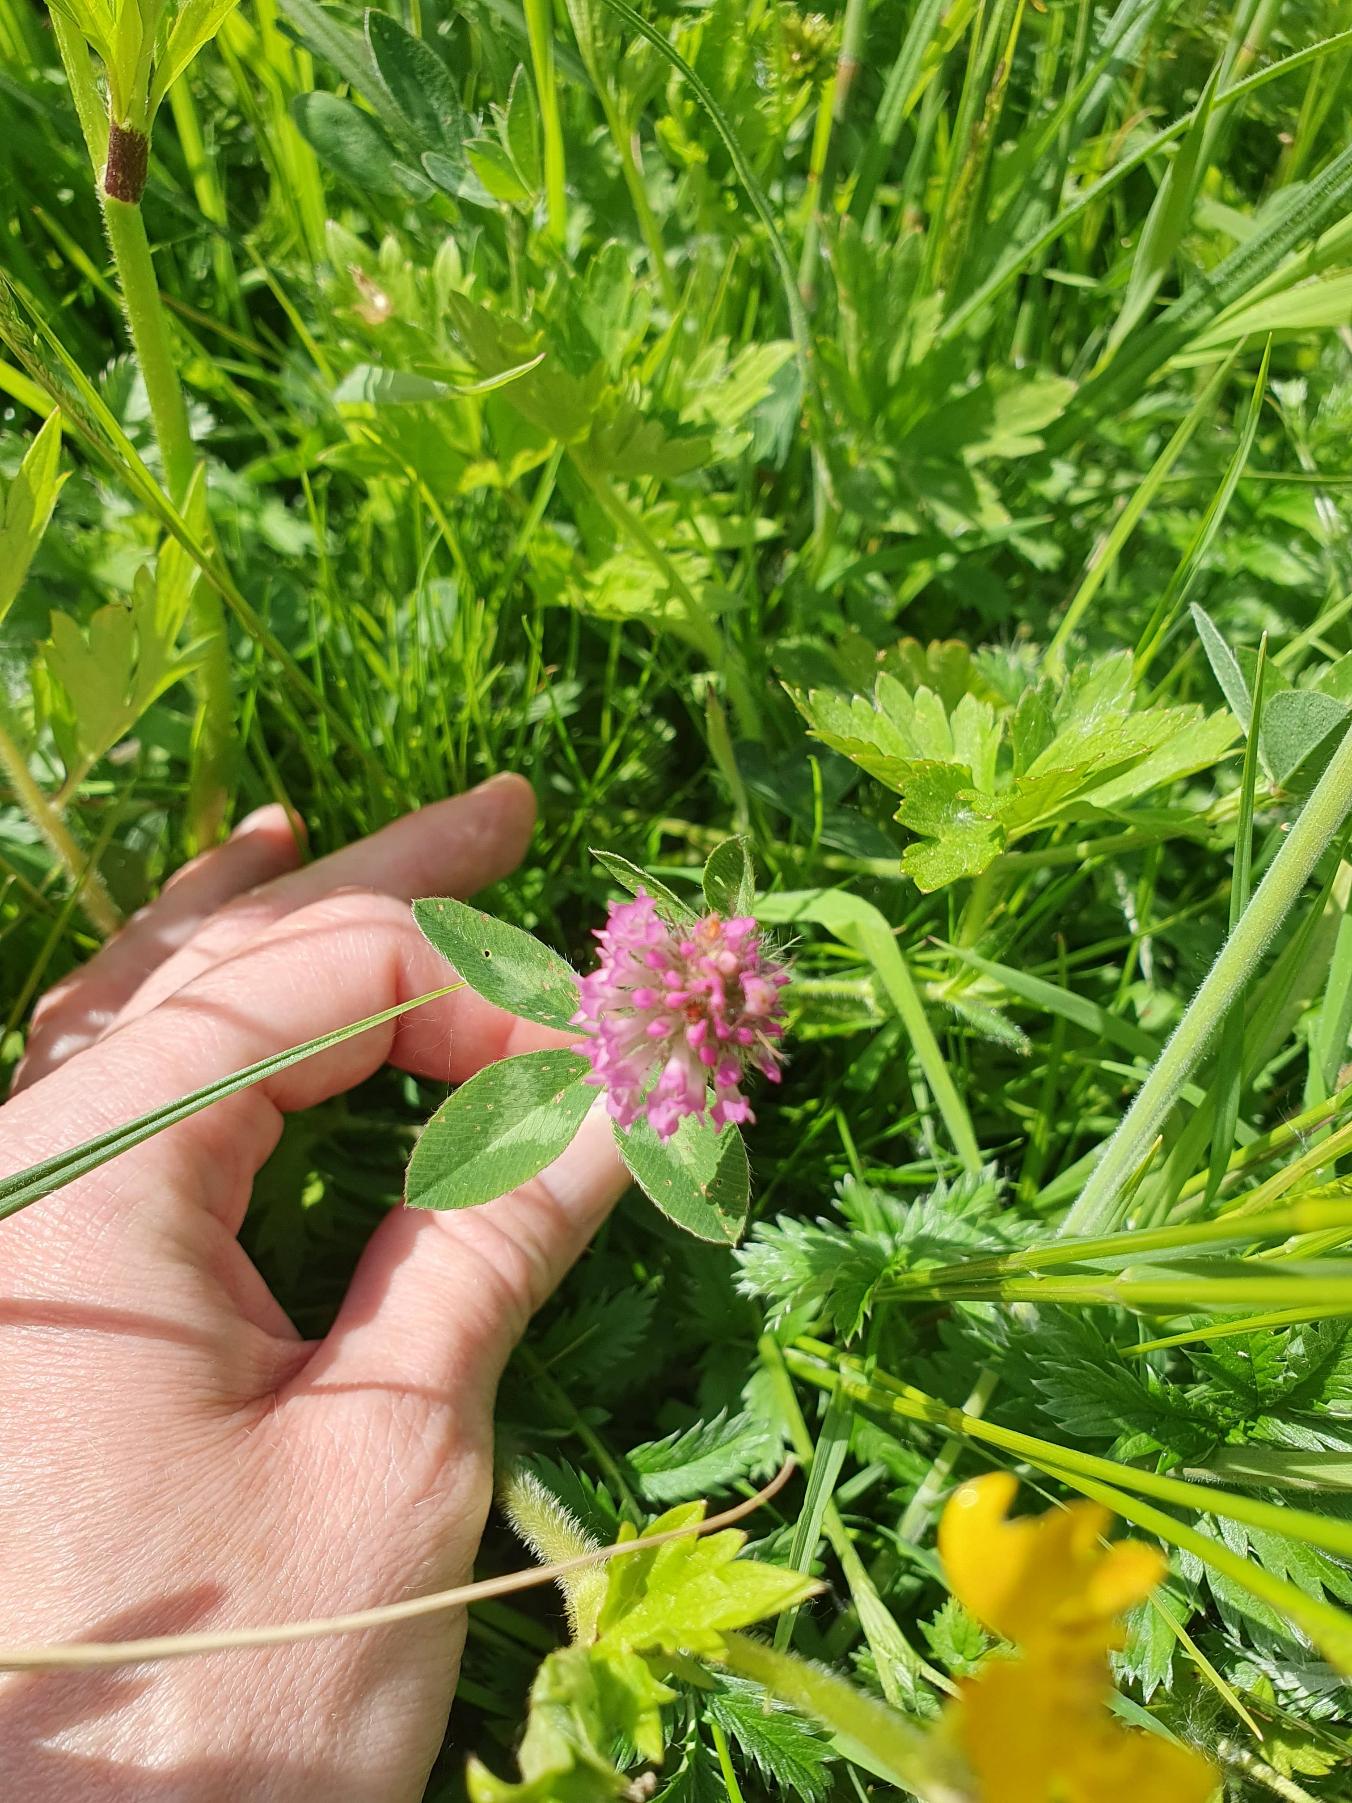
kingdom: Plantae
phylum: Tracheophyta
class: Magnoliopsida
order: Fabales
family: Fabaceae
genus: Trifolium
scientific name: Trifolium pratense
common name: Rød-kløver
